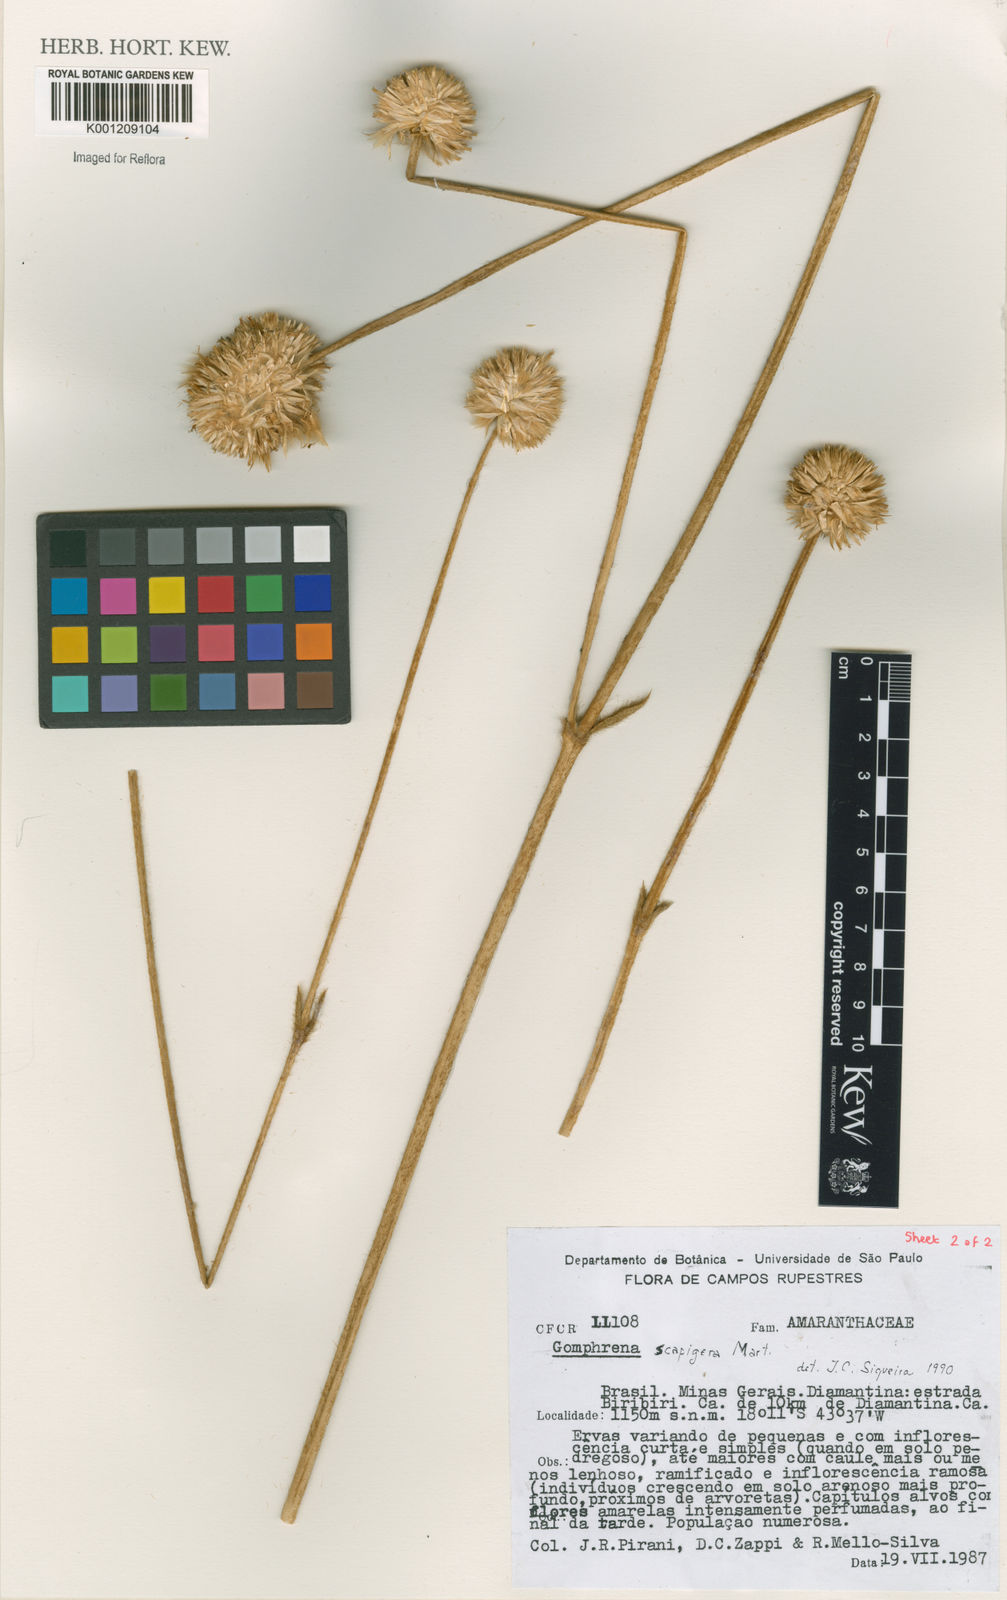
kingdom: Plantae
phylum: Tracheophyta
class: Magnoliopsida
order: Caryophyllales
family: Amaranthaceae
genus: Gomphrena
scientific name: Gomphrena scapigera
